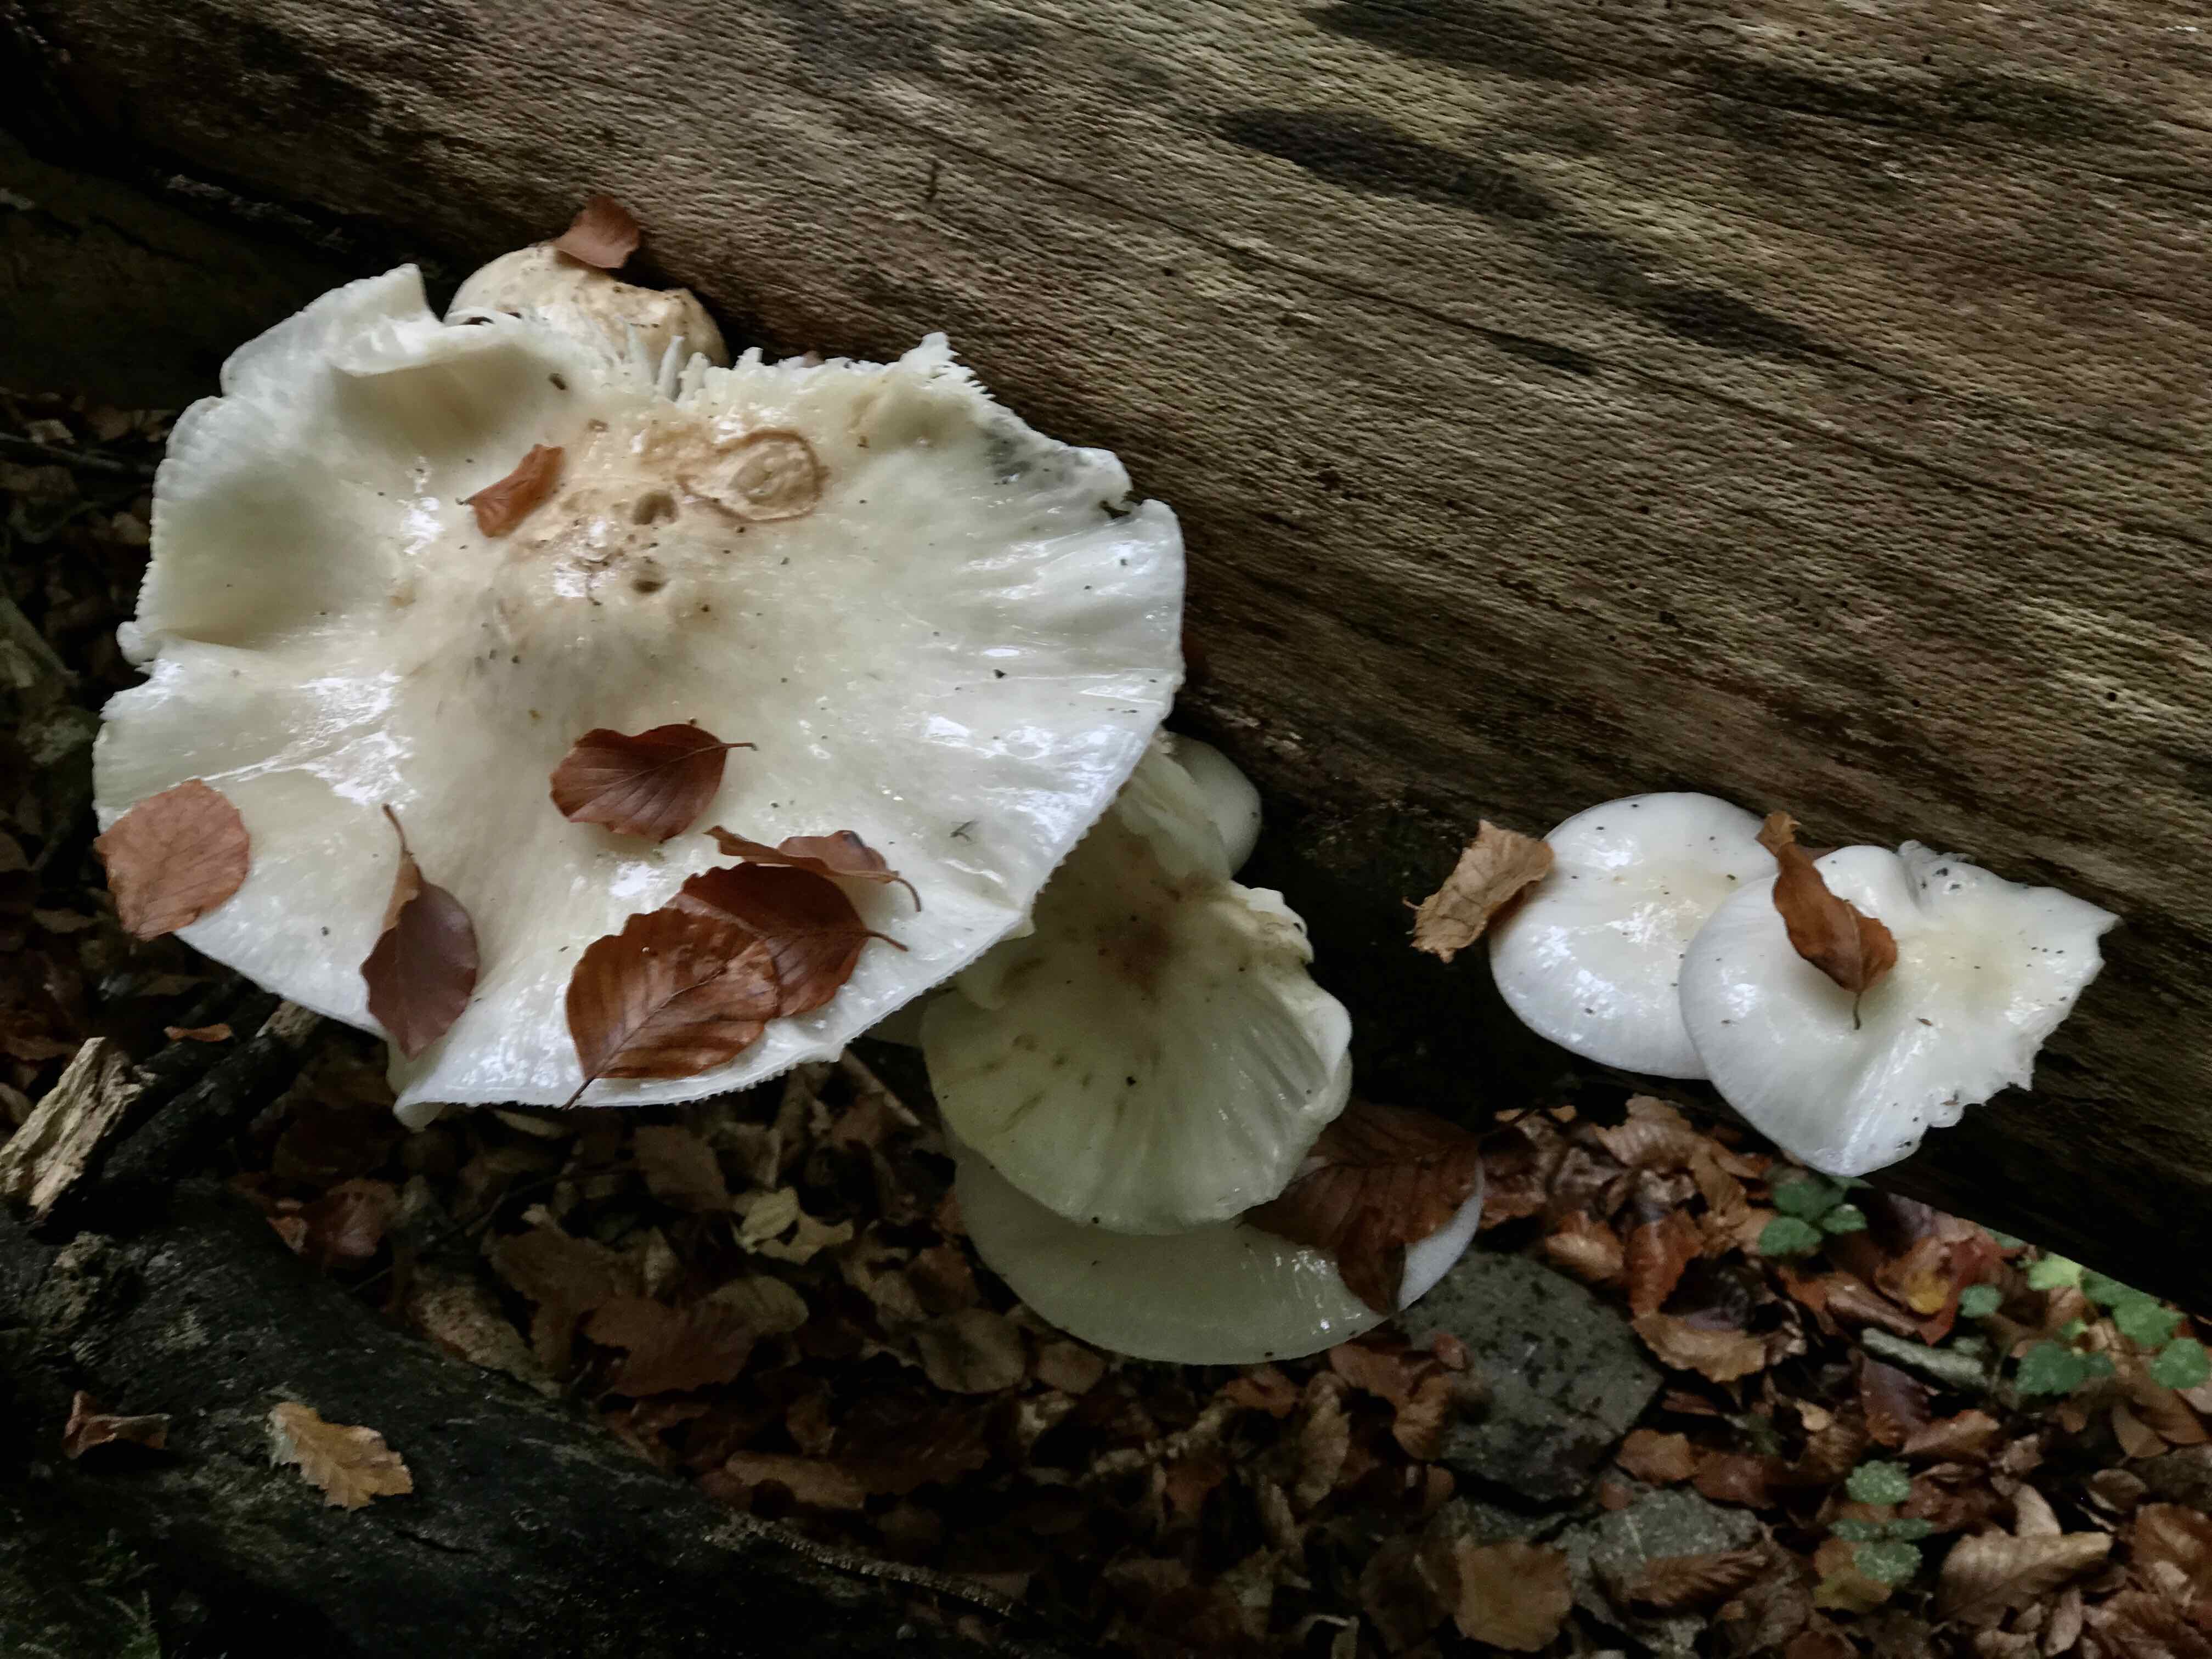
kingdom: Fungi
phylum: Basidiomycota
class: Agaricomycetes
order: Agaricales
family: Physalacriaceae
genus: Mucidula
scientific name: Mucidula mucida
